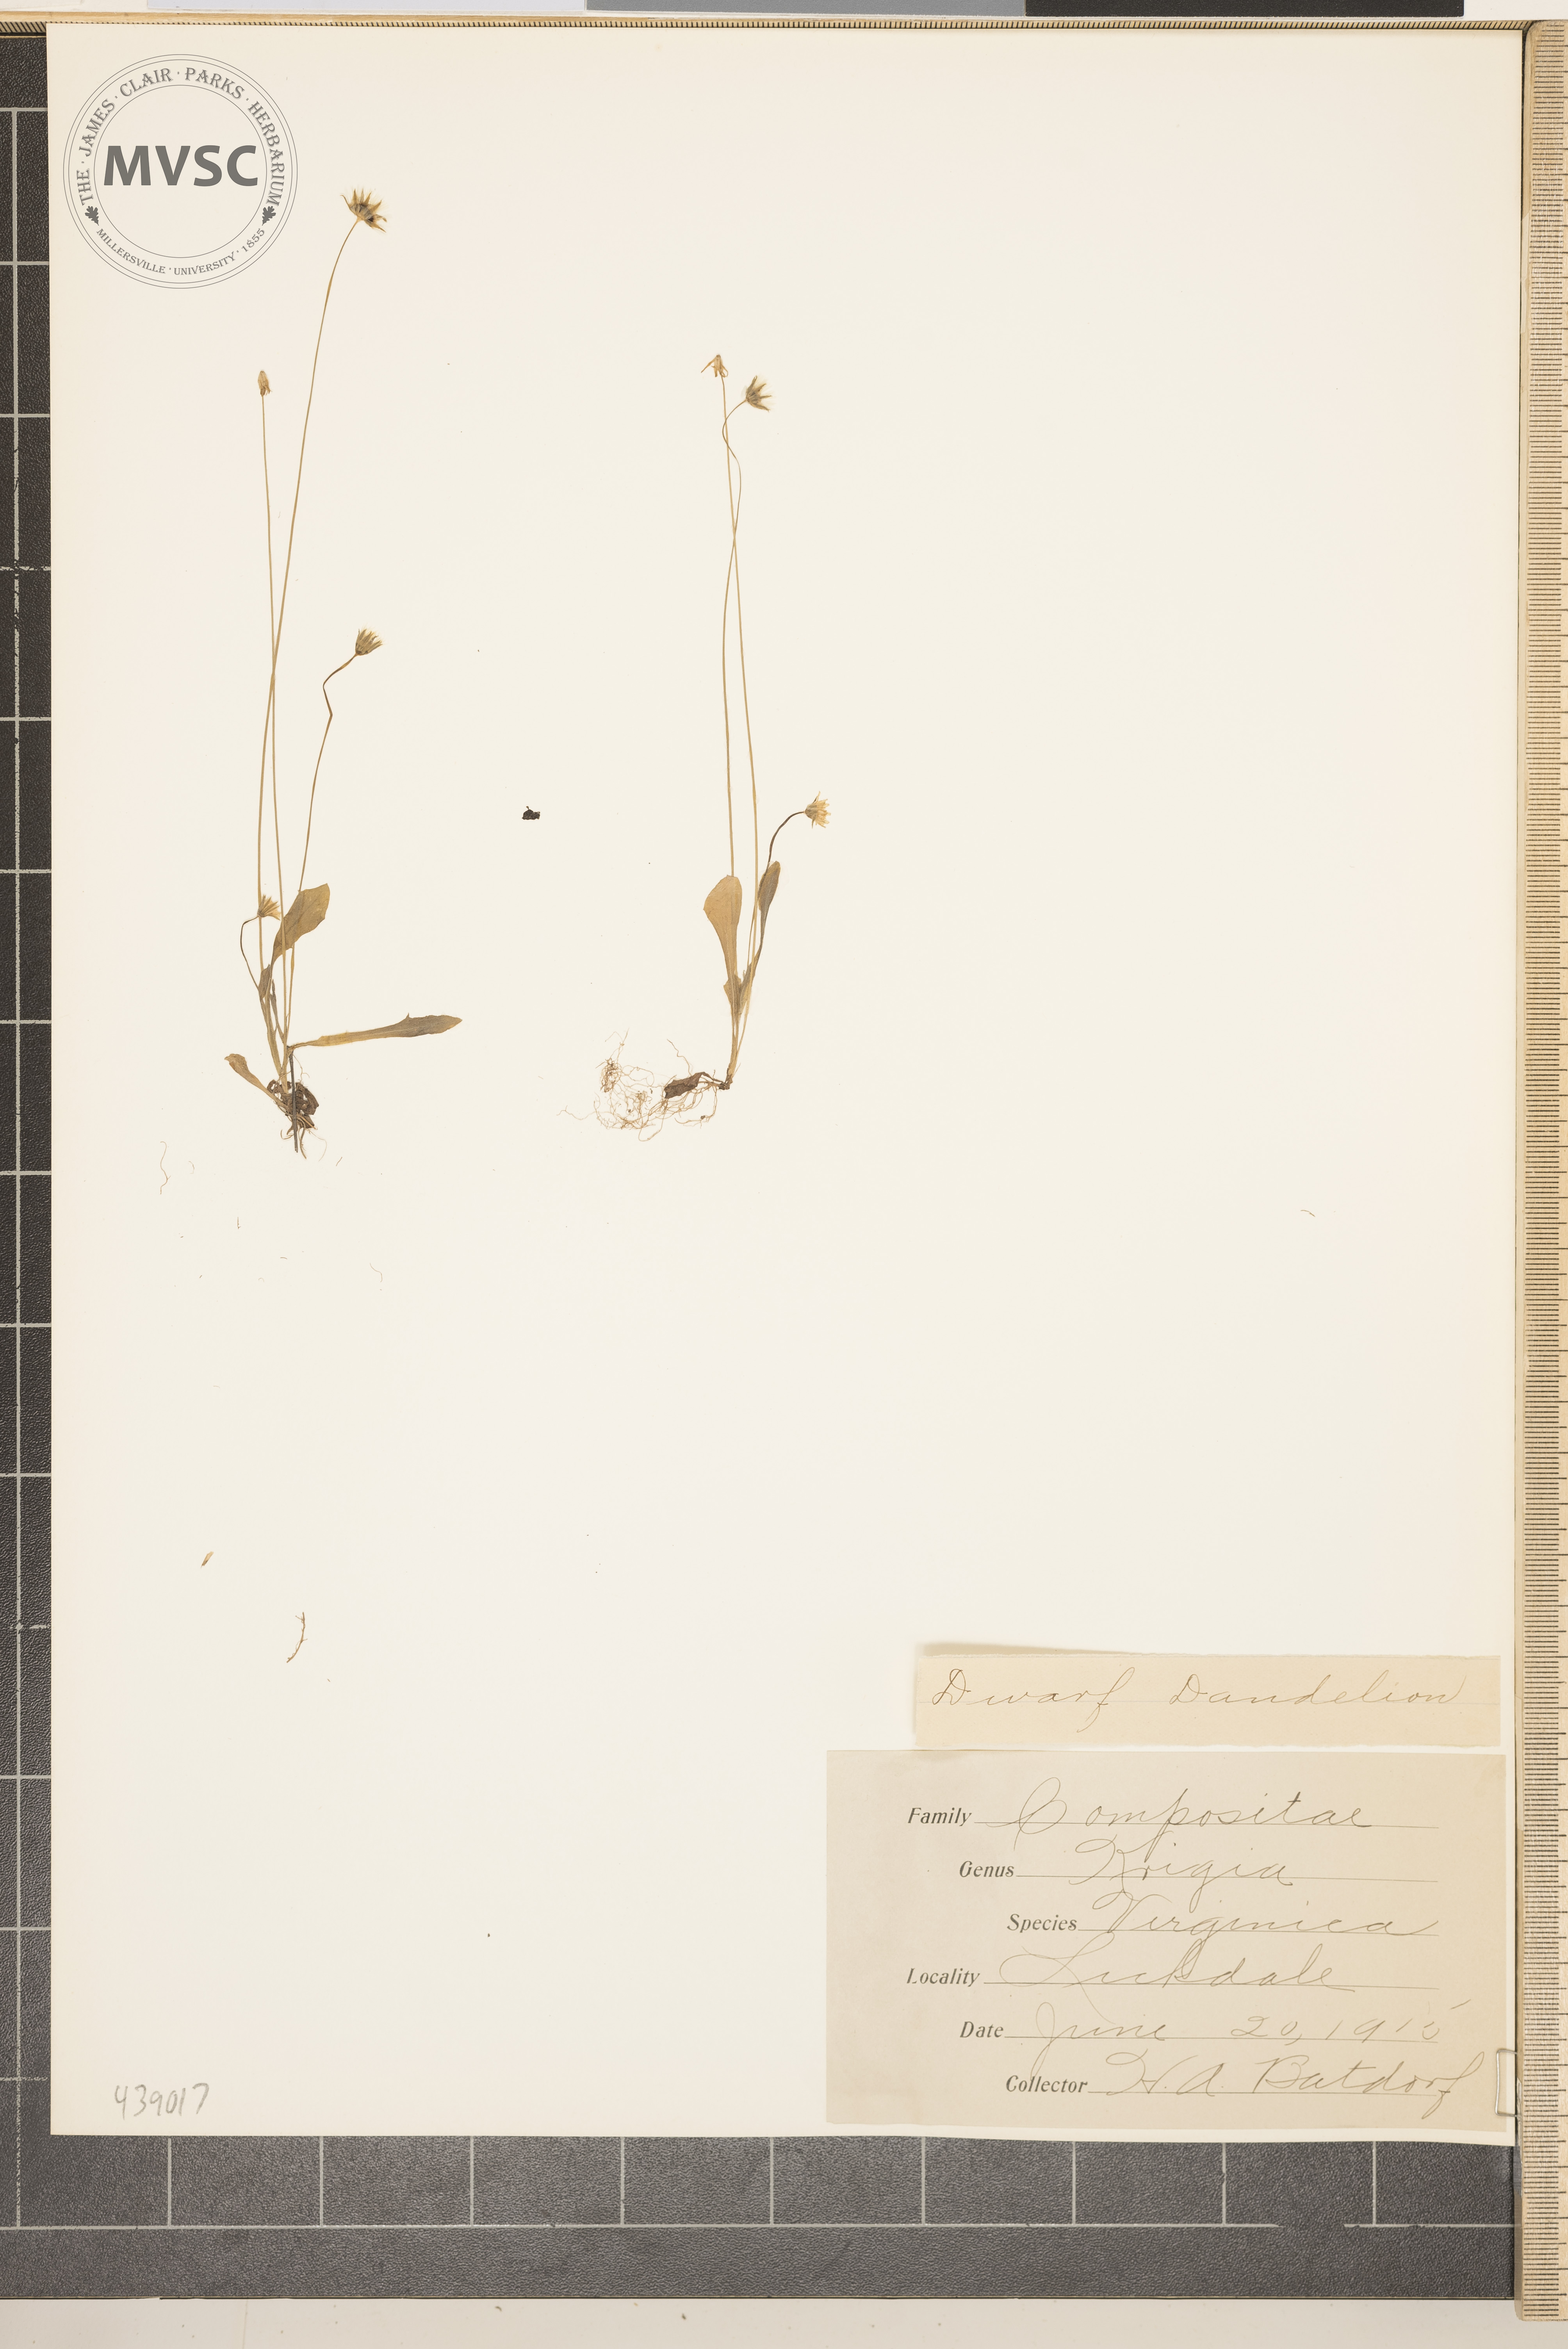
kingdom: Plantae
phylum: Tracheophyta
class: Magnoliopsida
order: Asterales
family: Asteraceae
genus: Krigia
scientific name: Krigia virginica
